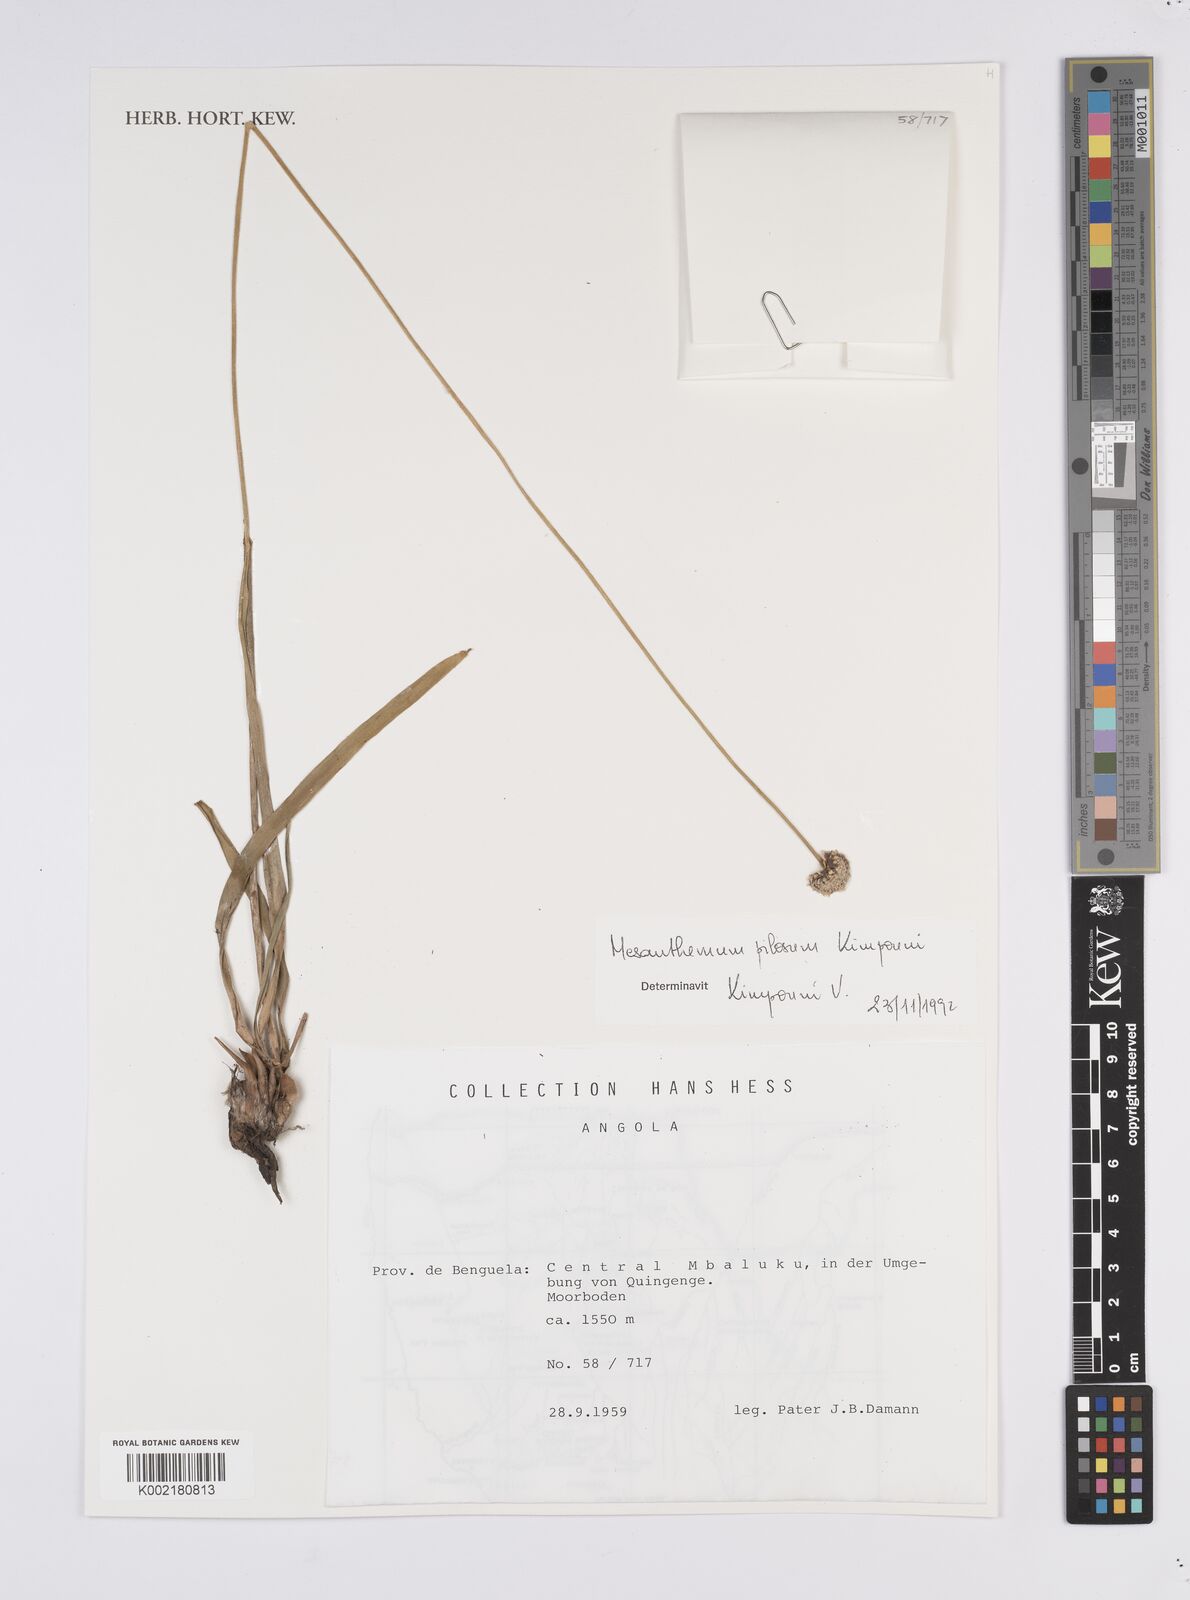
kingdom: Plantae
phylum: Tracheophyta
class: Liliopsida
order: Poales
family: Eriocaulaceae
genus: Mesanthemum
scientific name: Mesanthemum pilosum
